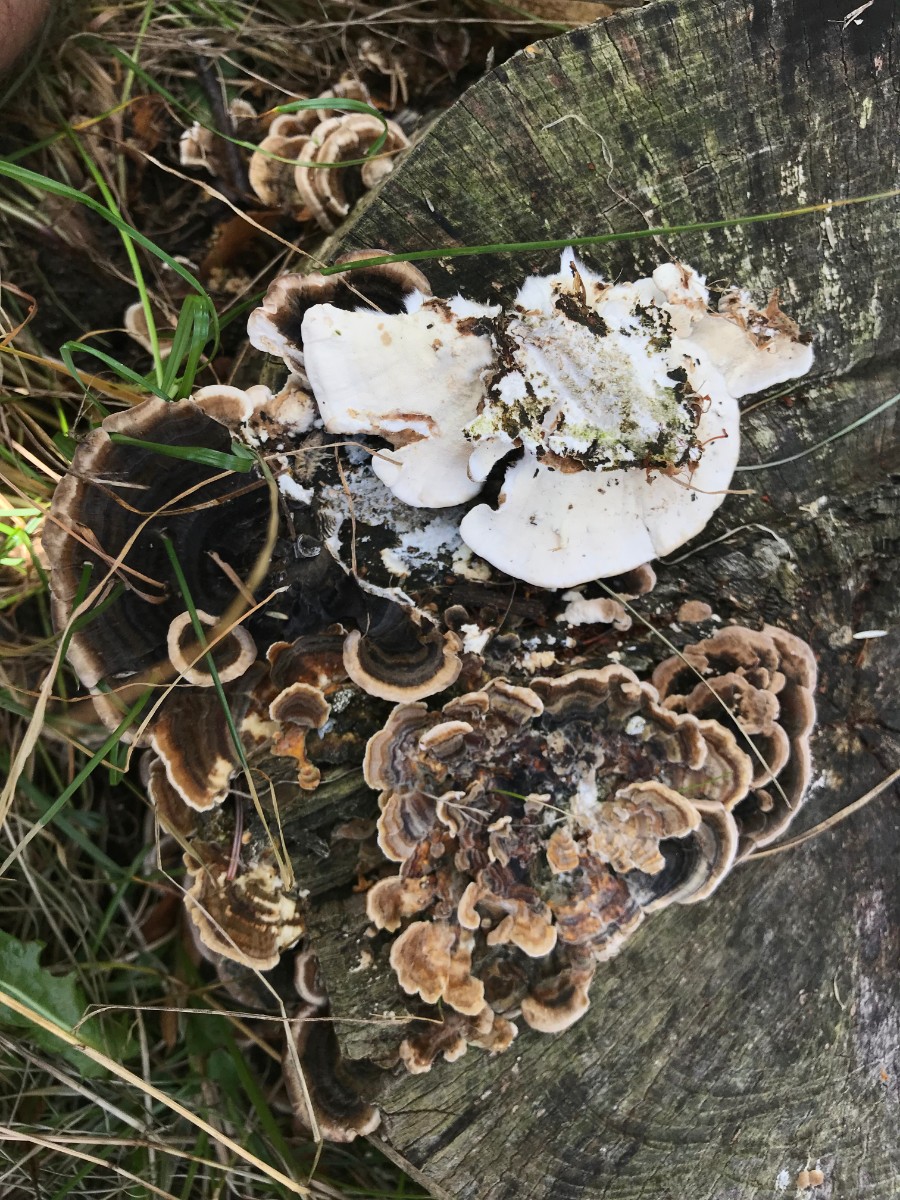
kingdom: Fungi
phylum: Basidiomycota
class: Agaricomycetes
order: Polyporales
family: Polyporaceae
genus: Trametes
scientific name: Trametes versicolor
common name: broget læderporesvamp
